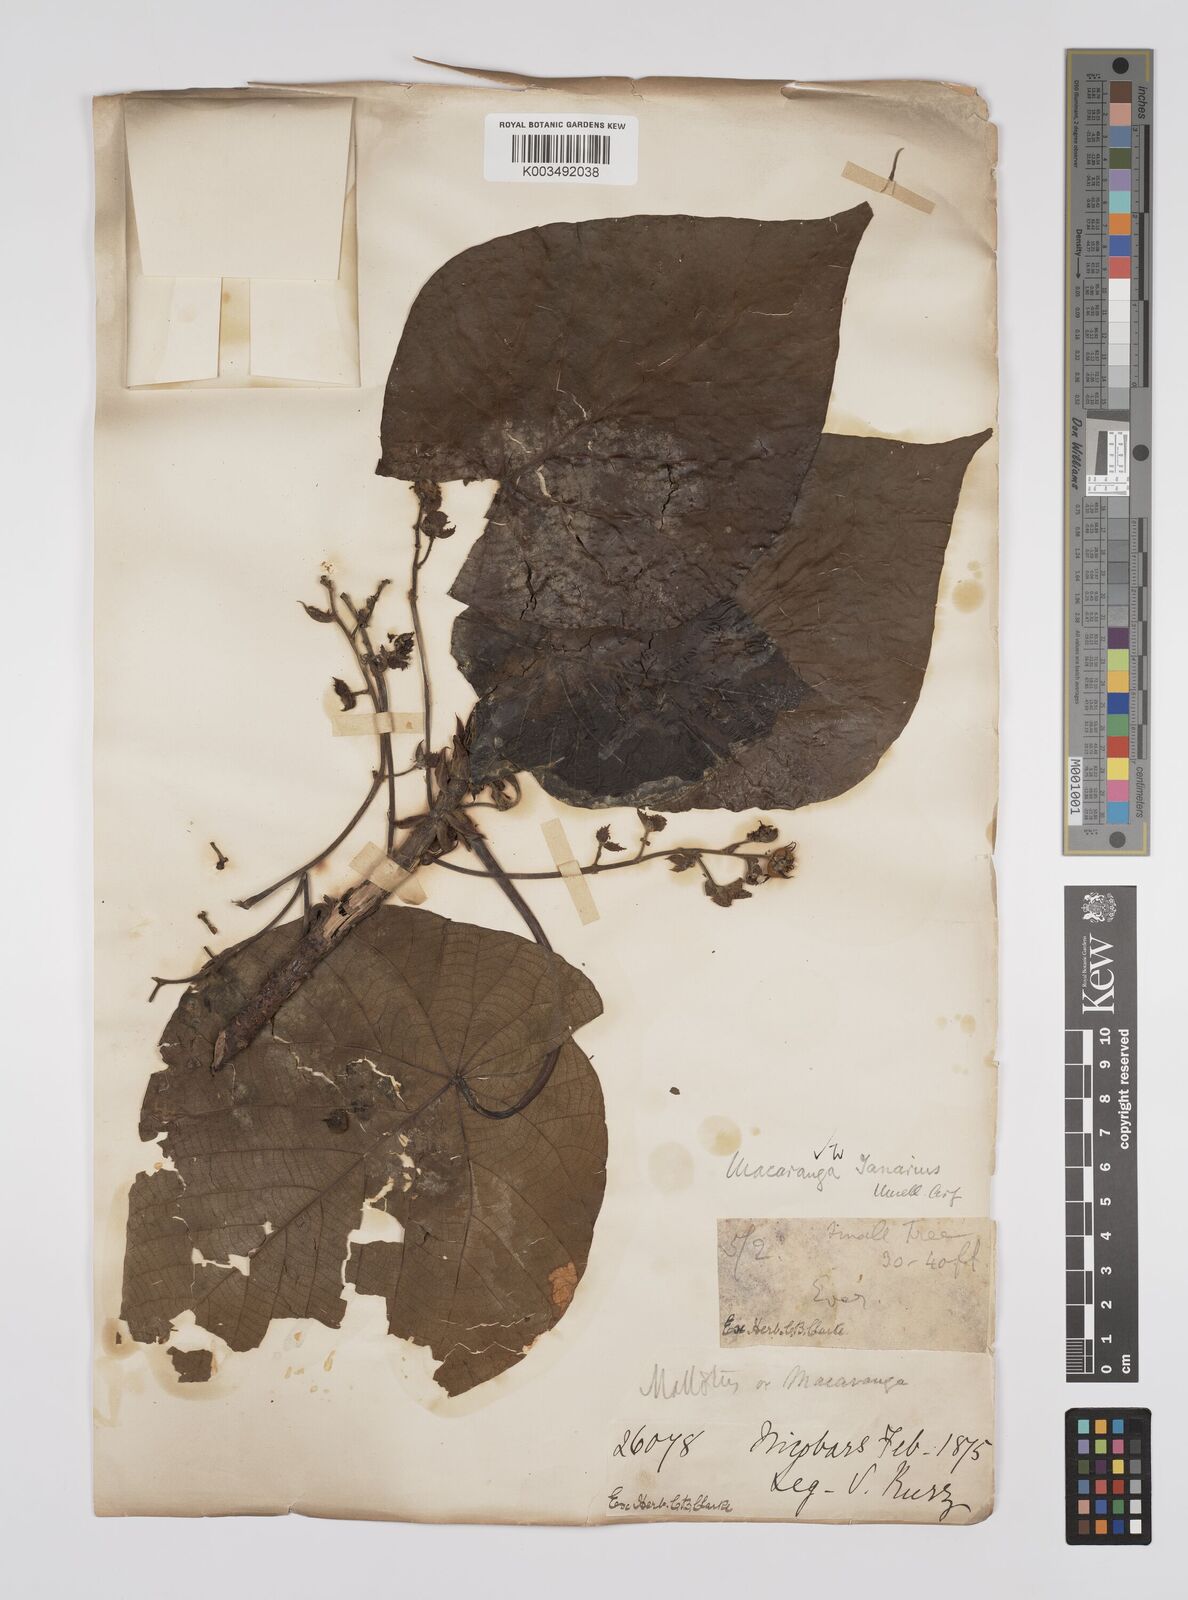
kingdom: Plantae
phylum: Tracheophyta
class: Magnoliopsida
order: Malpighiales
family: Euphorbiaceae
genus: Macaranga
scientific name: Macaranga tanarius
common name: Parasol leaf tree
